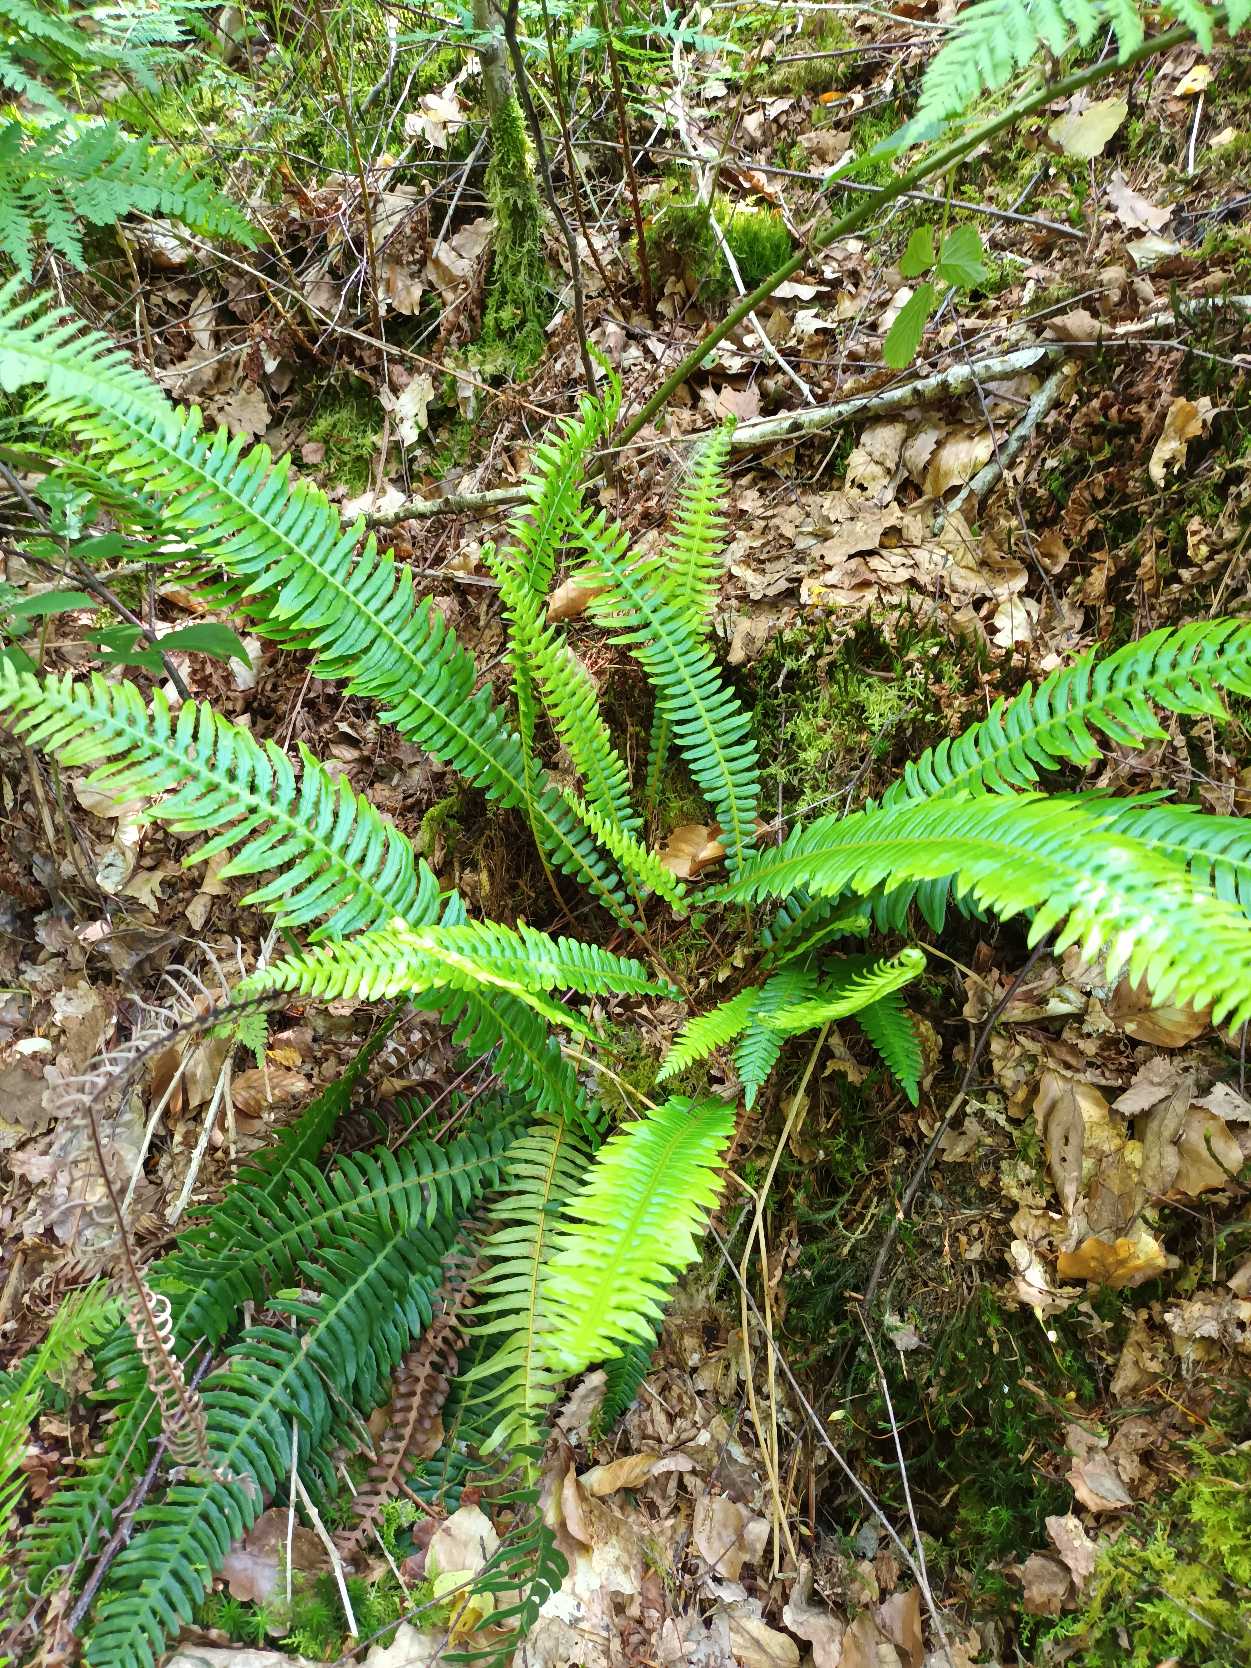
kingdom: Plantae
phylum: Tracheophyta
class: Polypodiopsida
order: Polypodiales
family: Blechnaceae
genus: Struthiopteris
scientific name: Struthiopteris spicant
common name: Kambregne
